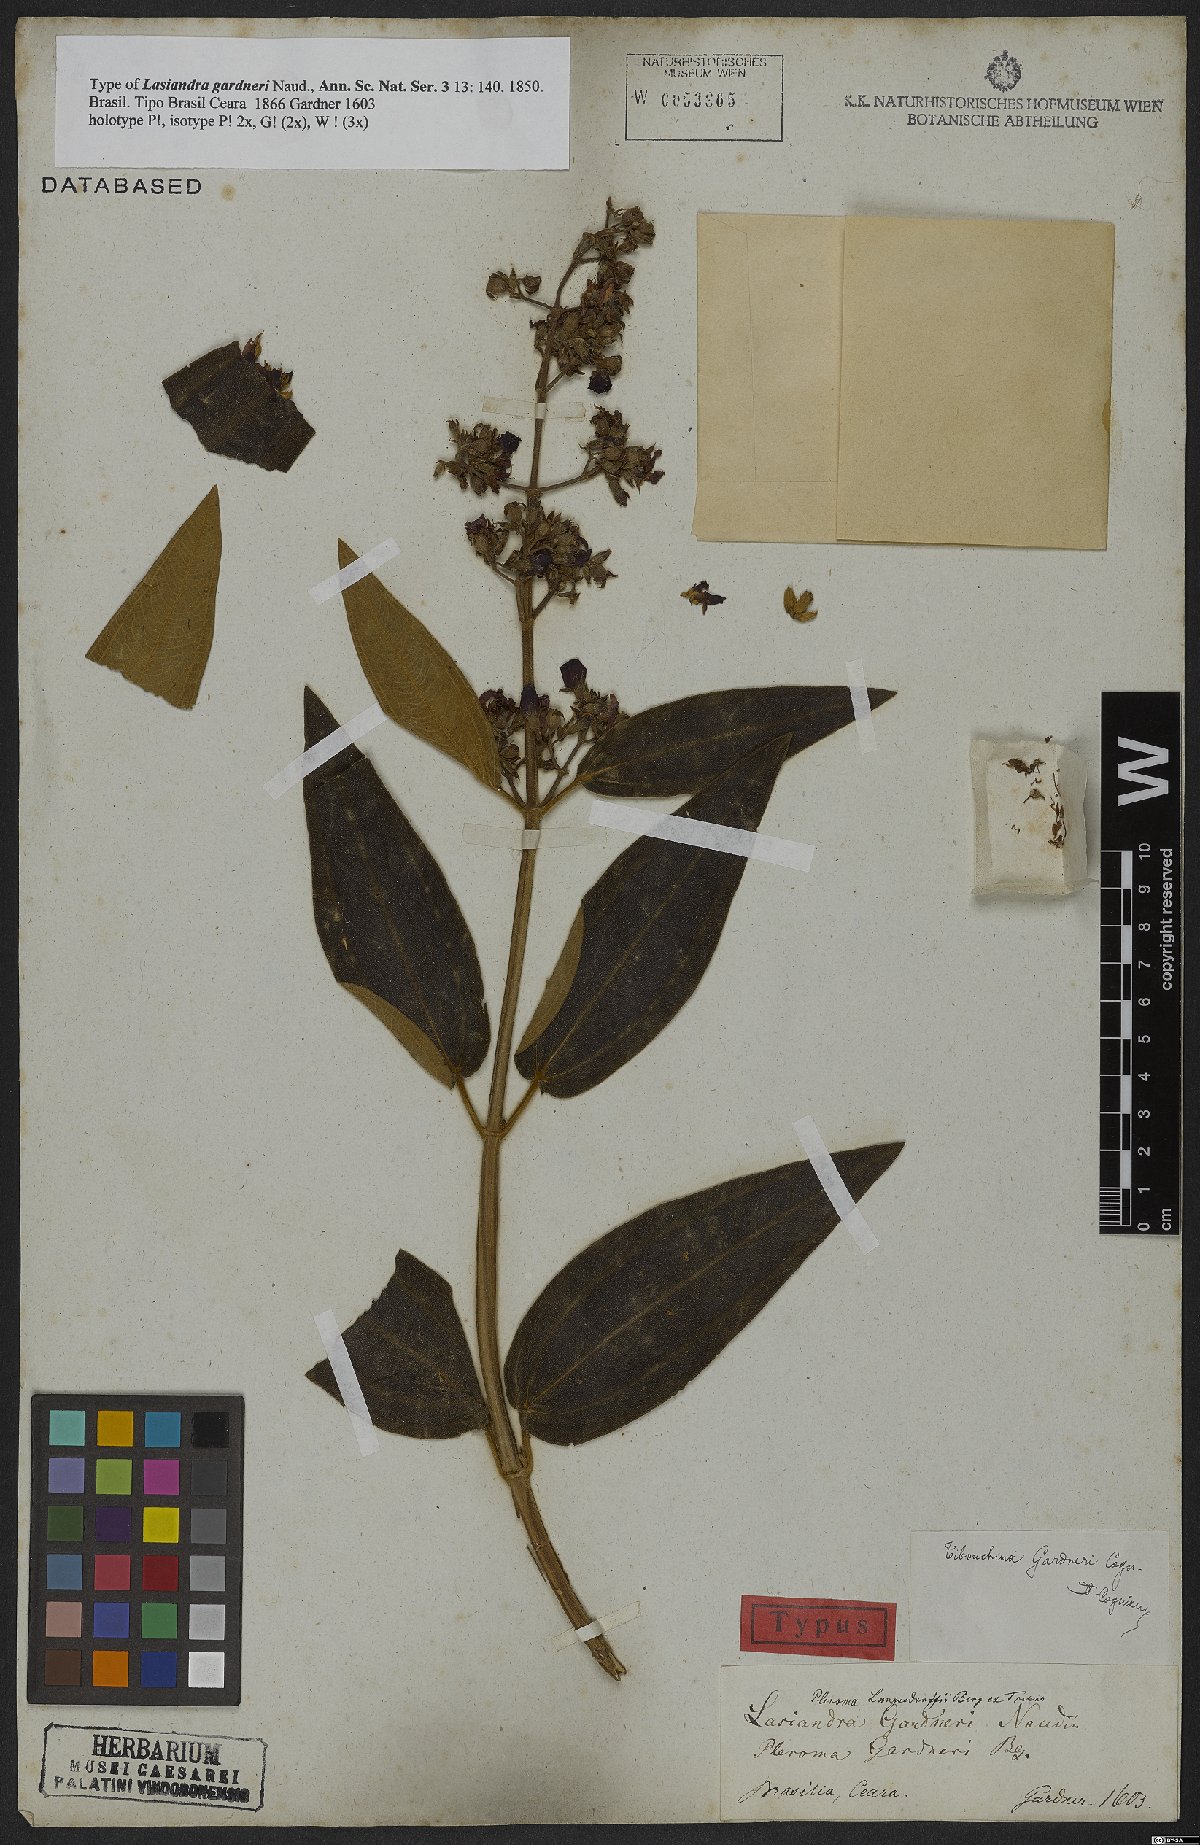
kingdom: Plantae
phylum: Tracheophyta
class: Magnoliopsida
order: Myrtales
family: Melastomataceae
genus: Pleroma
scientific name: Pleroma gardneri
